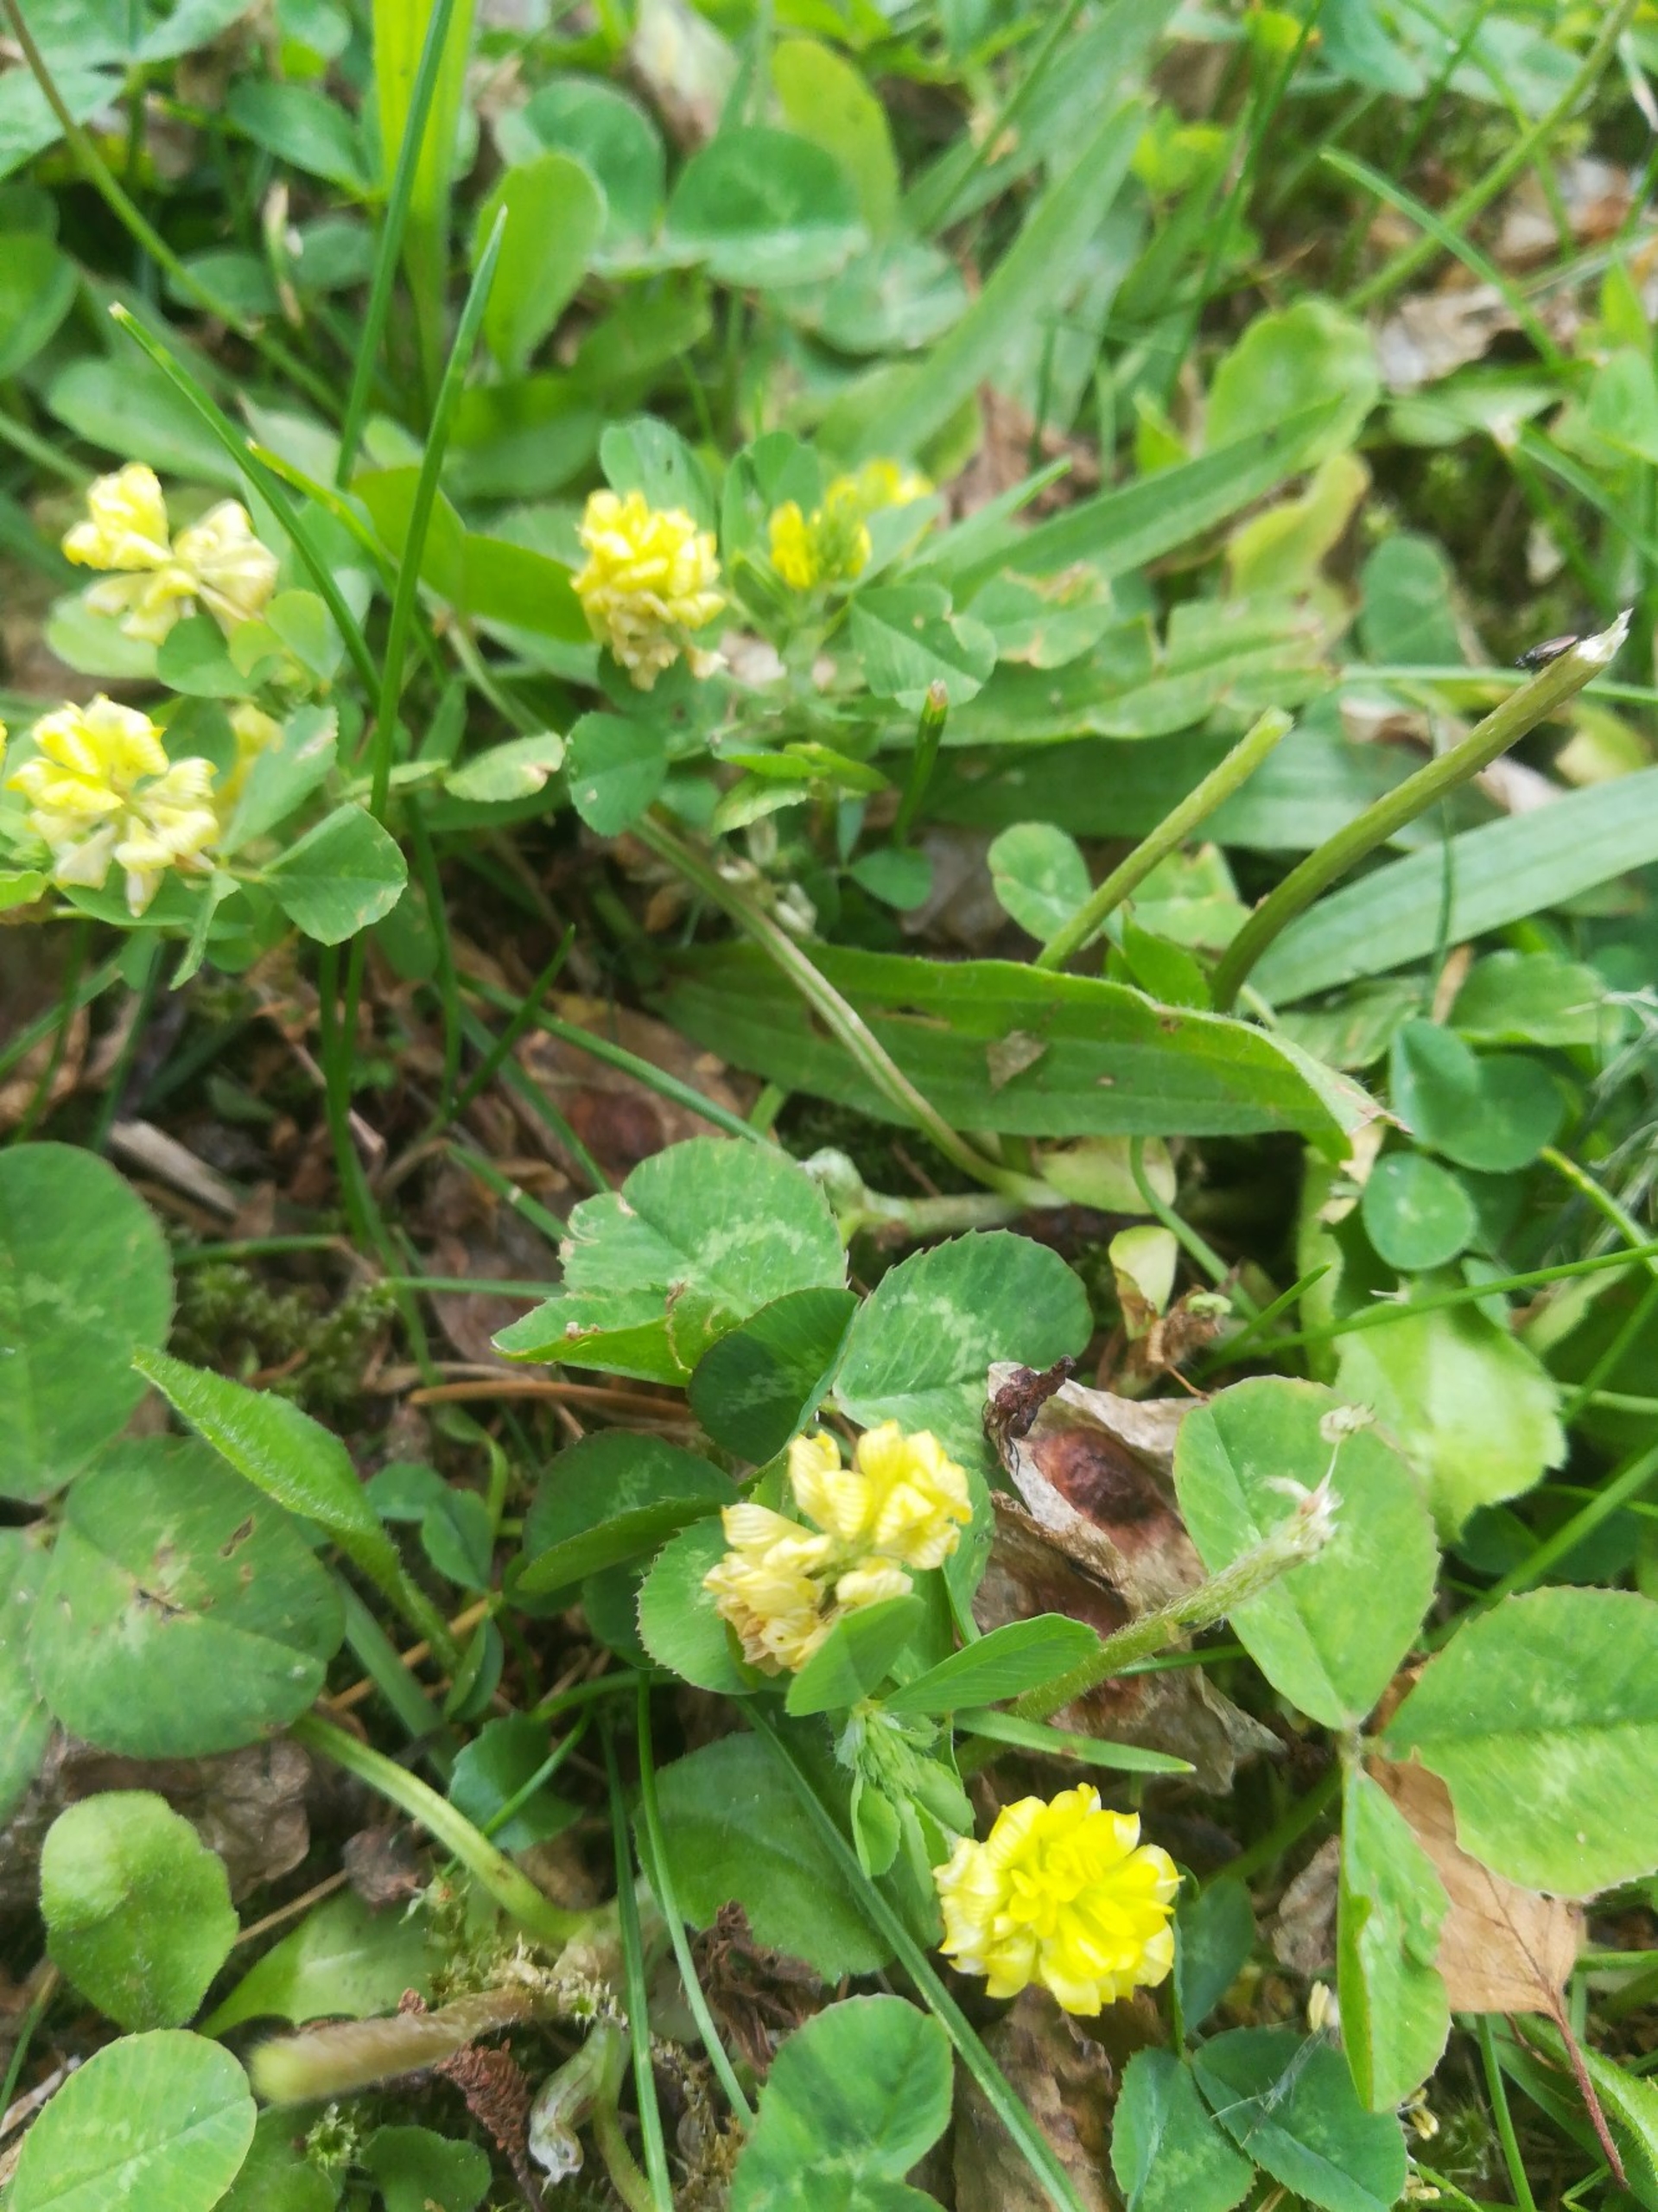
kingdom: Plantae
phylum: Tracheophyta
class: Magnoliopsida
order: Fabales
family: Fabaceae
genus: Trifolium
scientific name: Trifolium campestre
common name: Gul kløver
